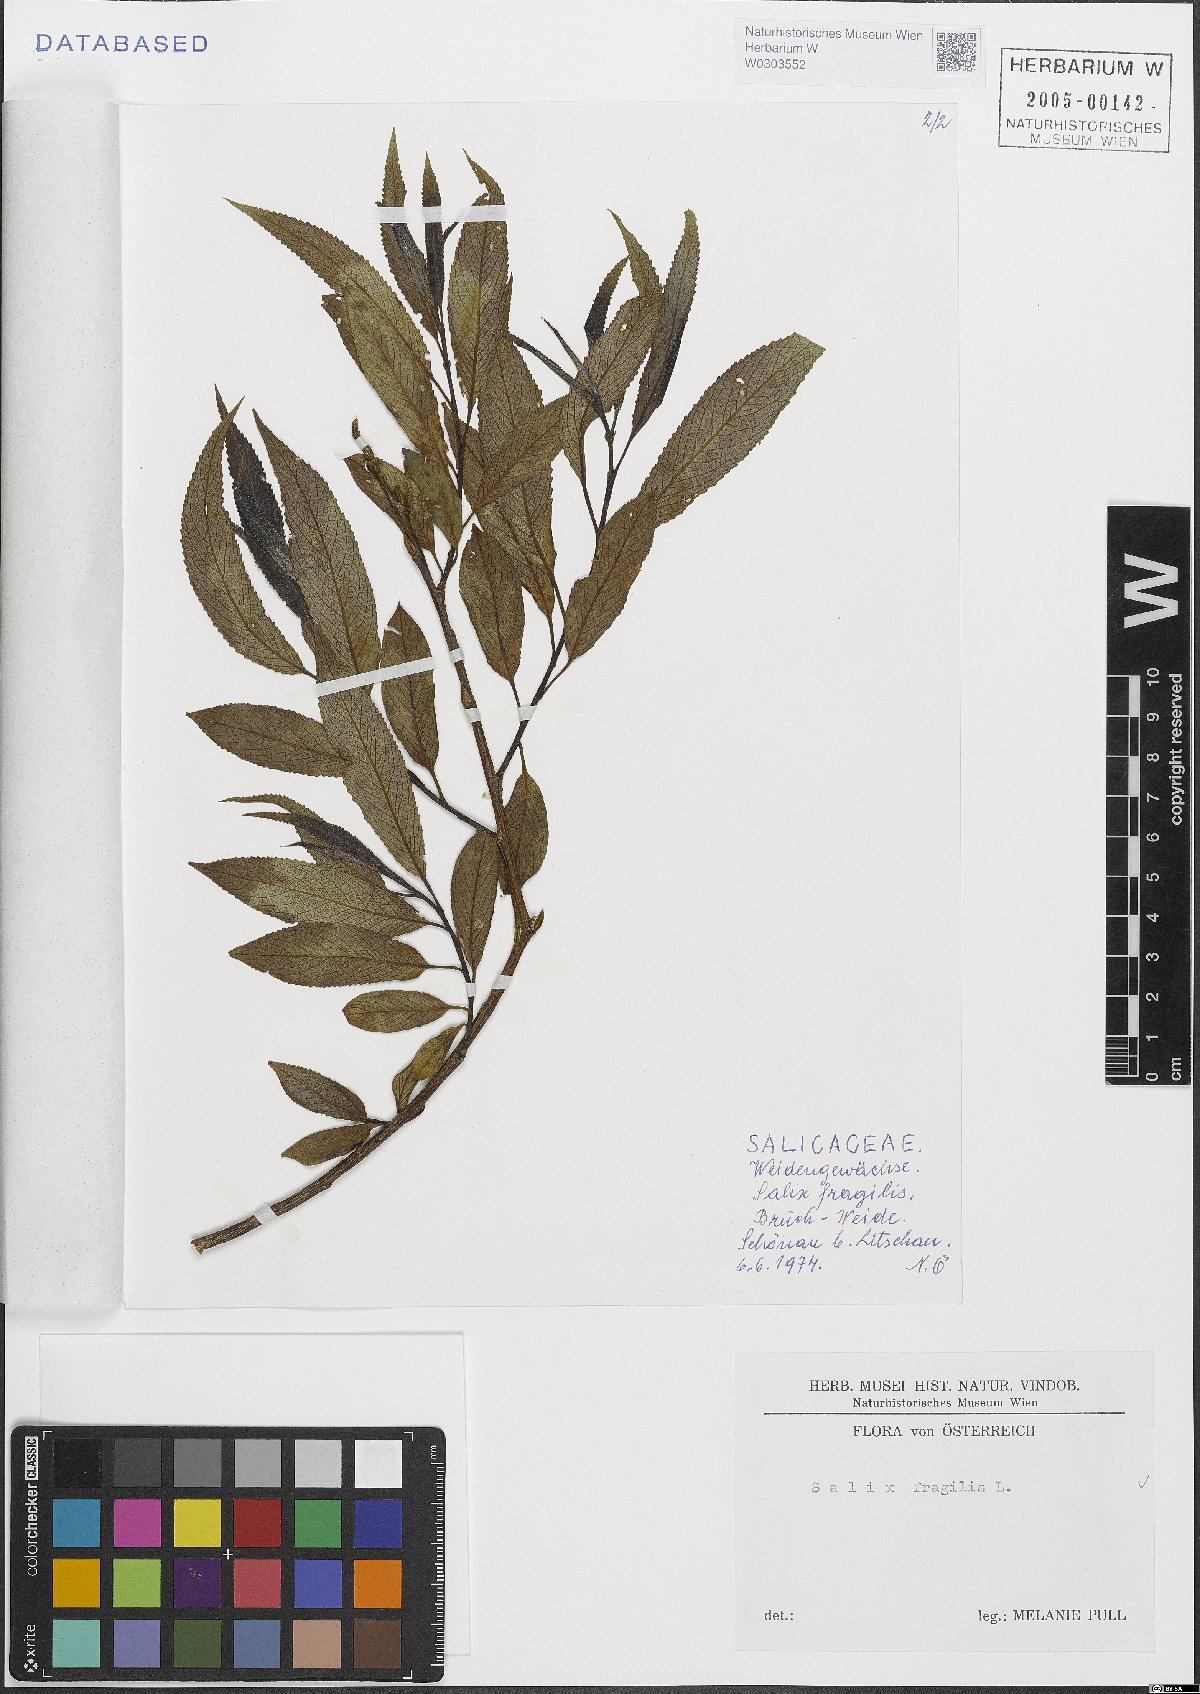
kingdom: Plantae
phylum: Tracheophyta
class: Magnoliopsida
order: Malpighiales
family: Salicaceae
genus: Salix
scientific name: Salix fragilis
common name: Crack willow
